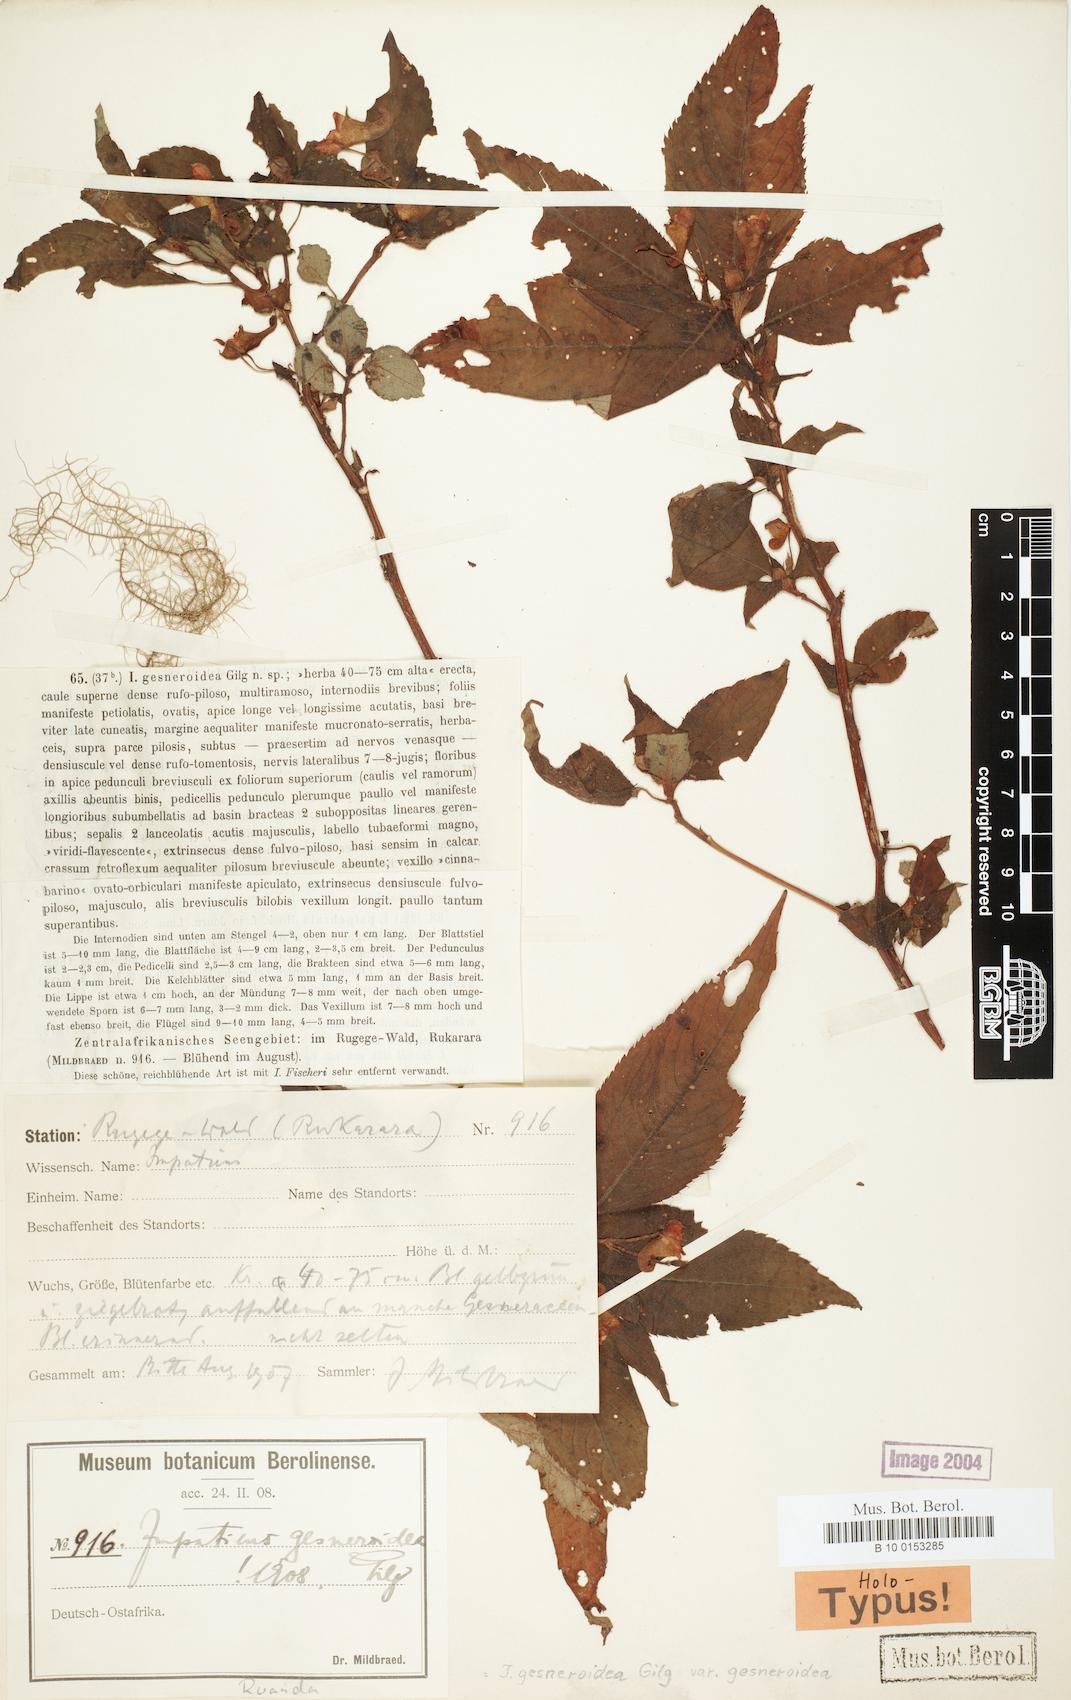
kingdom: Plantae
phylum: Tracheophyta
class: Magnoliopsida
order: Ericales
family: Balsaminaceae
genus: Impatiens
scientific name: Impatiens gesneroidea
